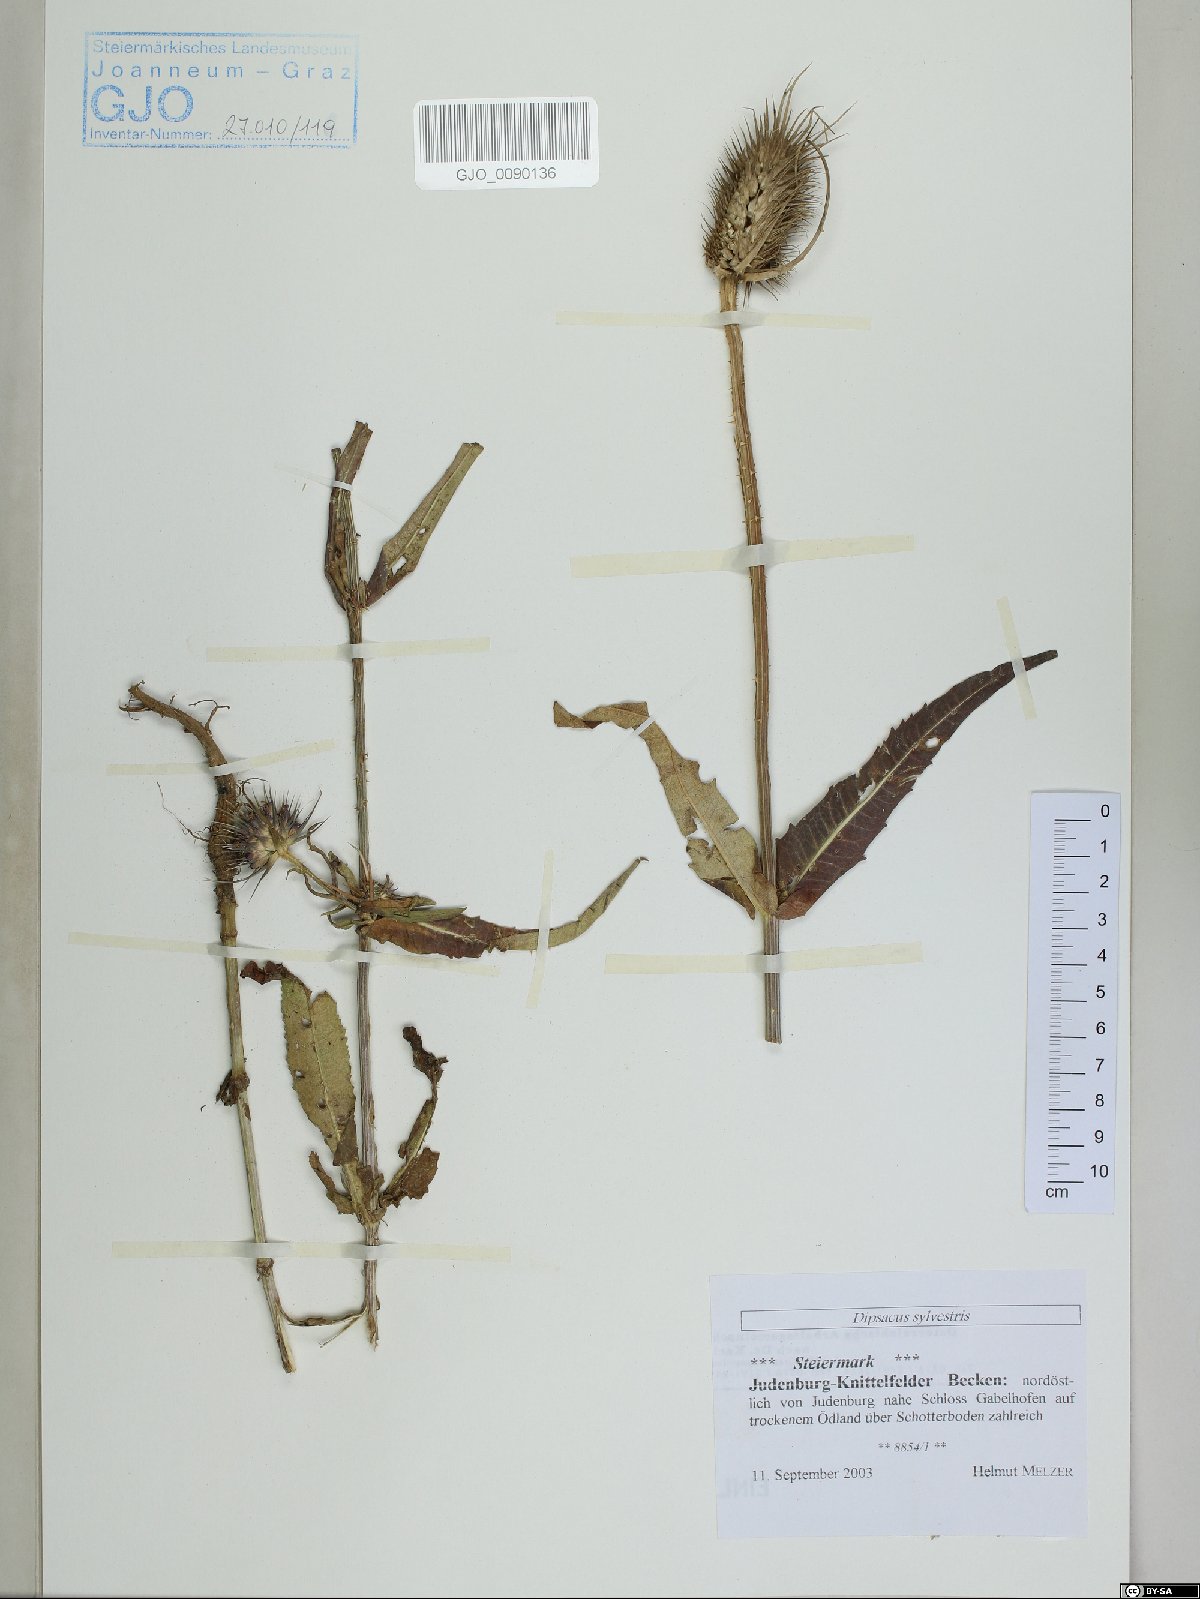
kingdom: Plantae
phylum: Tracheophyta
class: Magnoliopsida
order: Dipsacales
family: Caprifoliaceae
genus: Dipsacus
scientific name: Dipsacus fullonum
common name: Teasel
